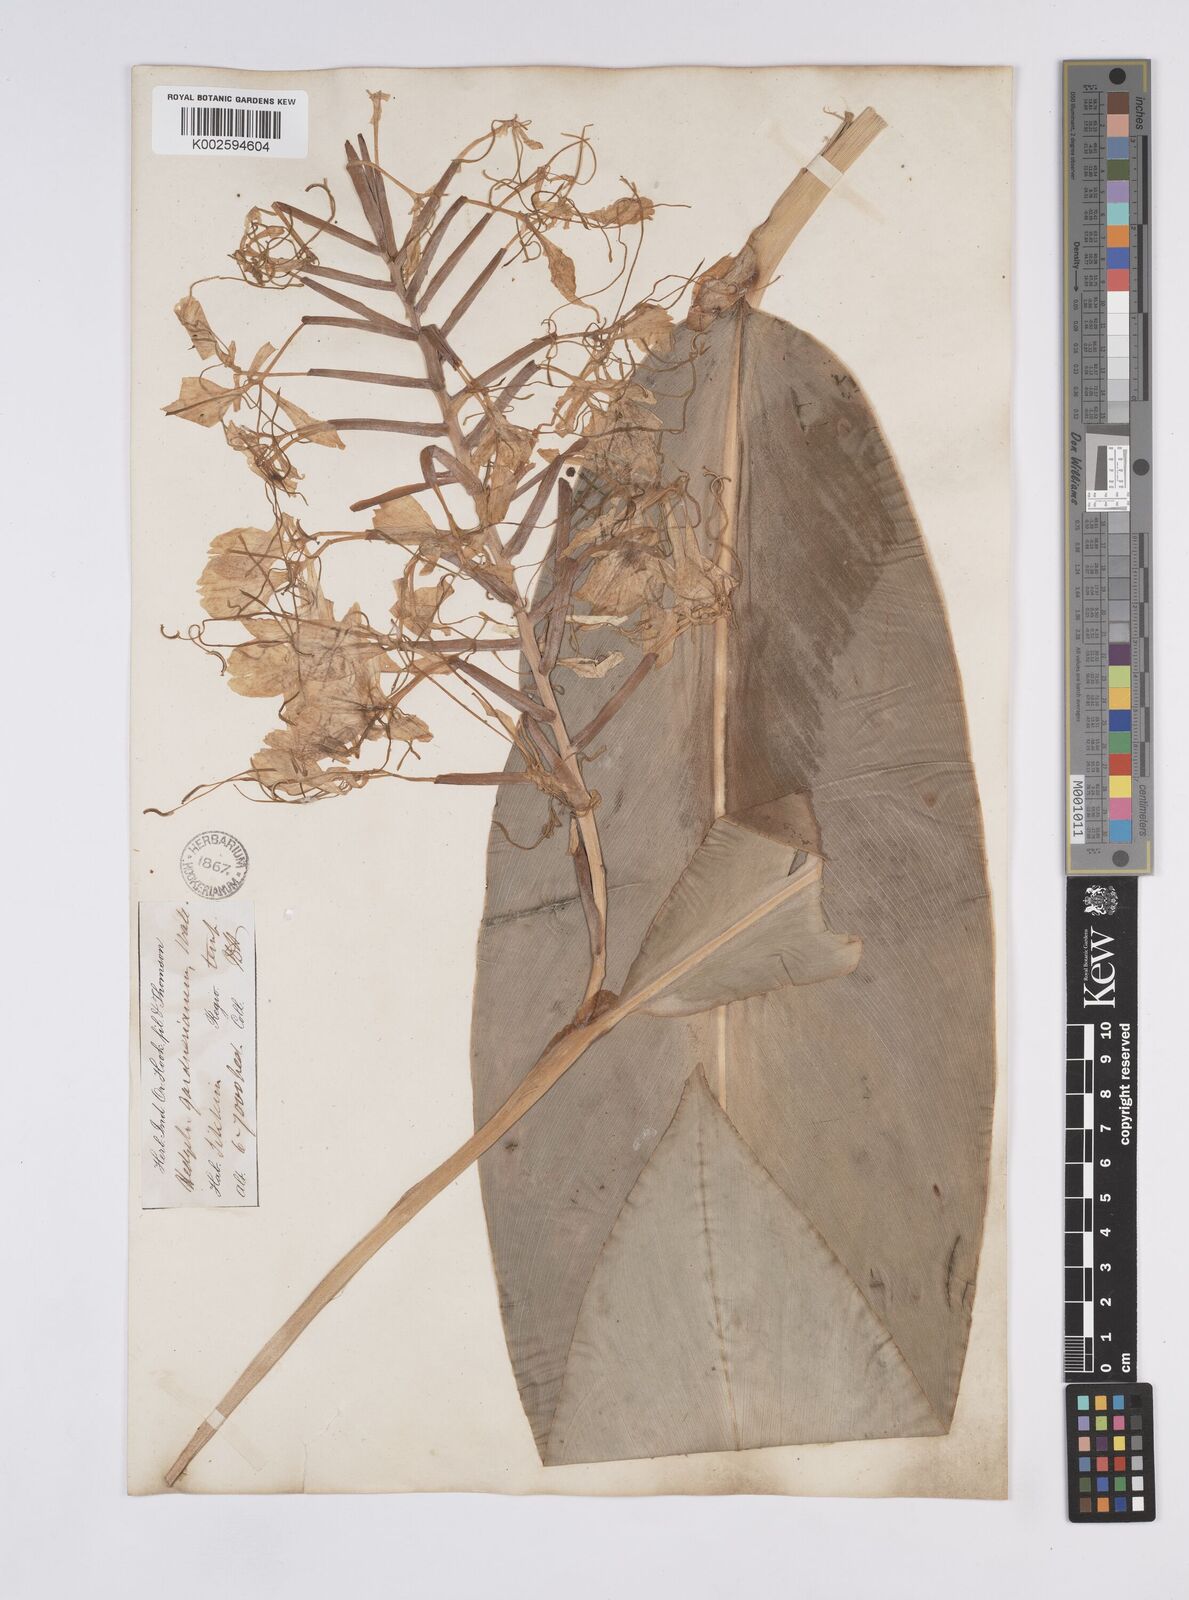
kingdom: Plantae
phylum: Tracheophyta
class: Liliopsida
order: Zingiberales
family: Zingiberaceae
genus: Hedychium
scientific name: Hedychium gardnerianum
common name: Himalayan ginger
